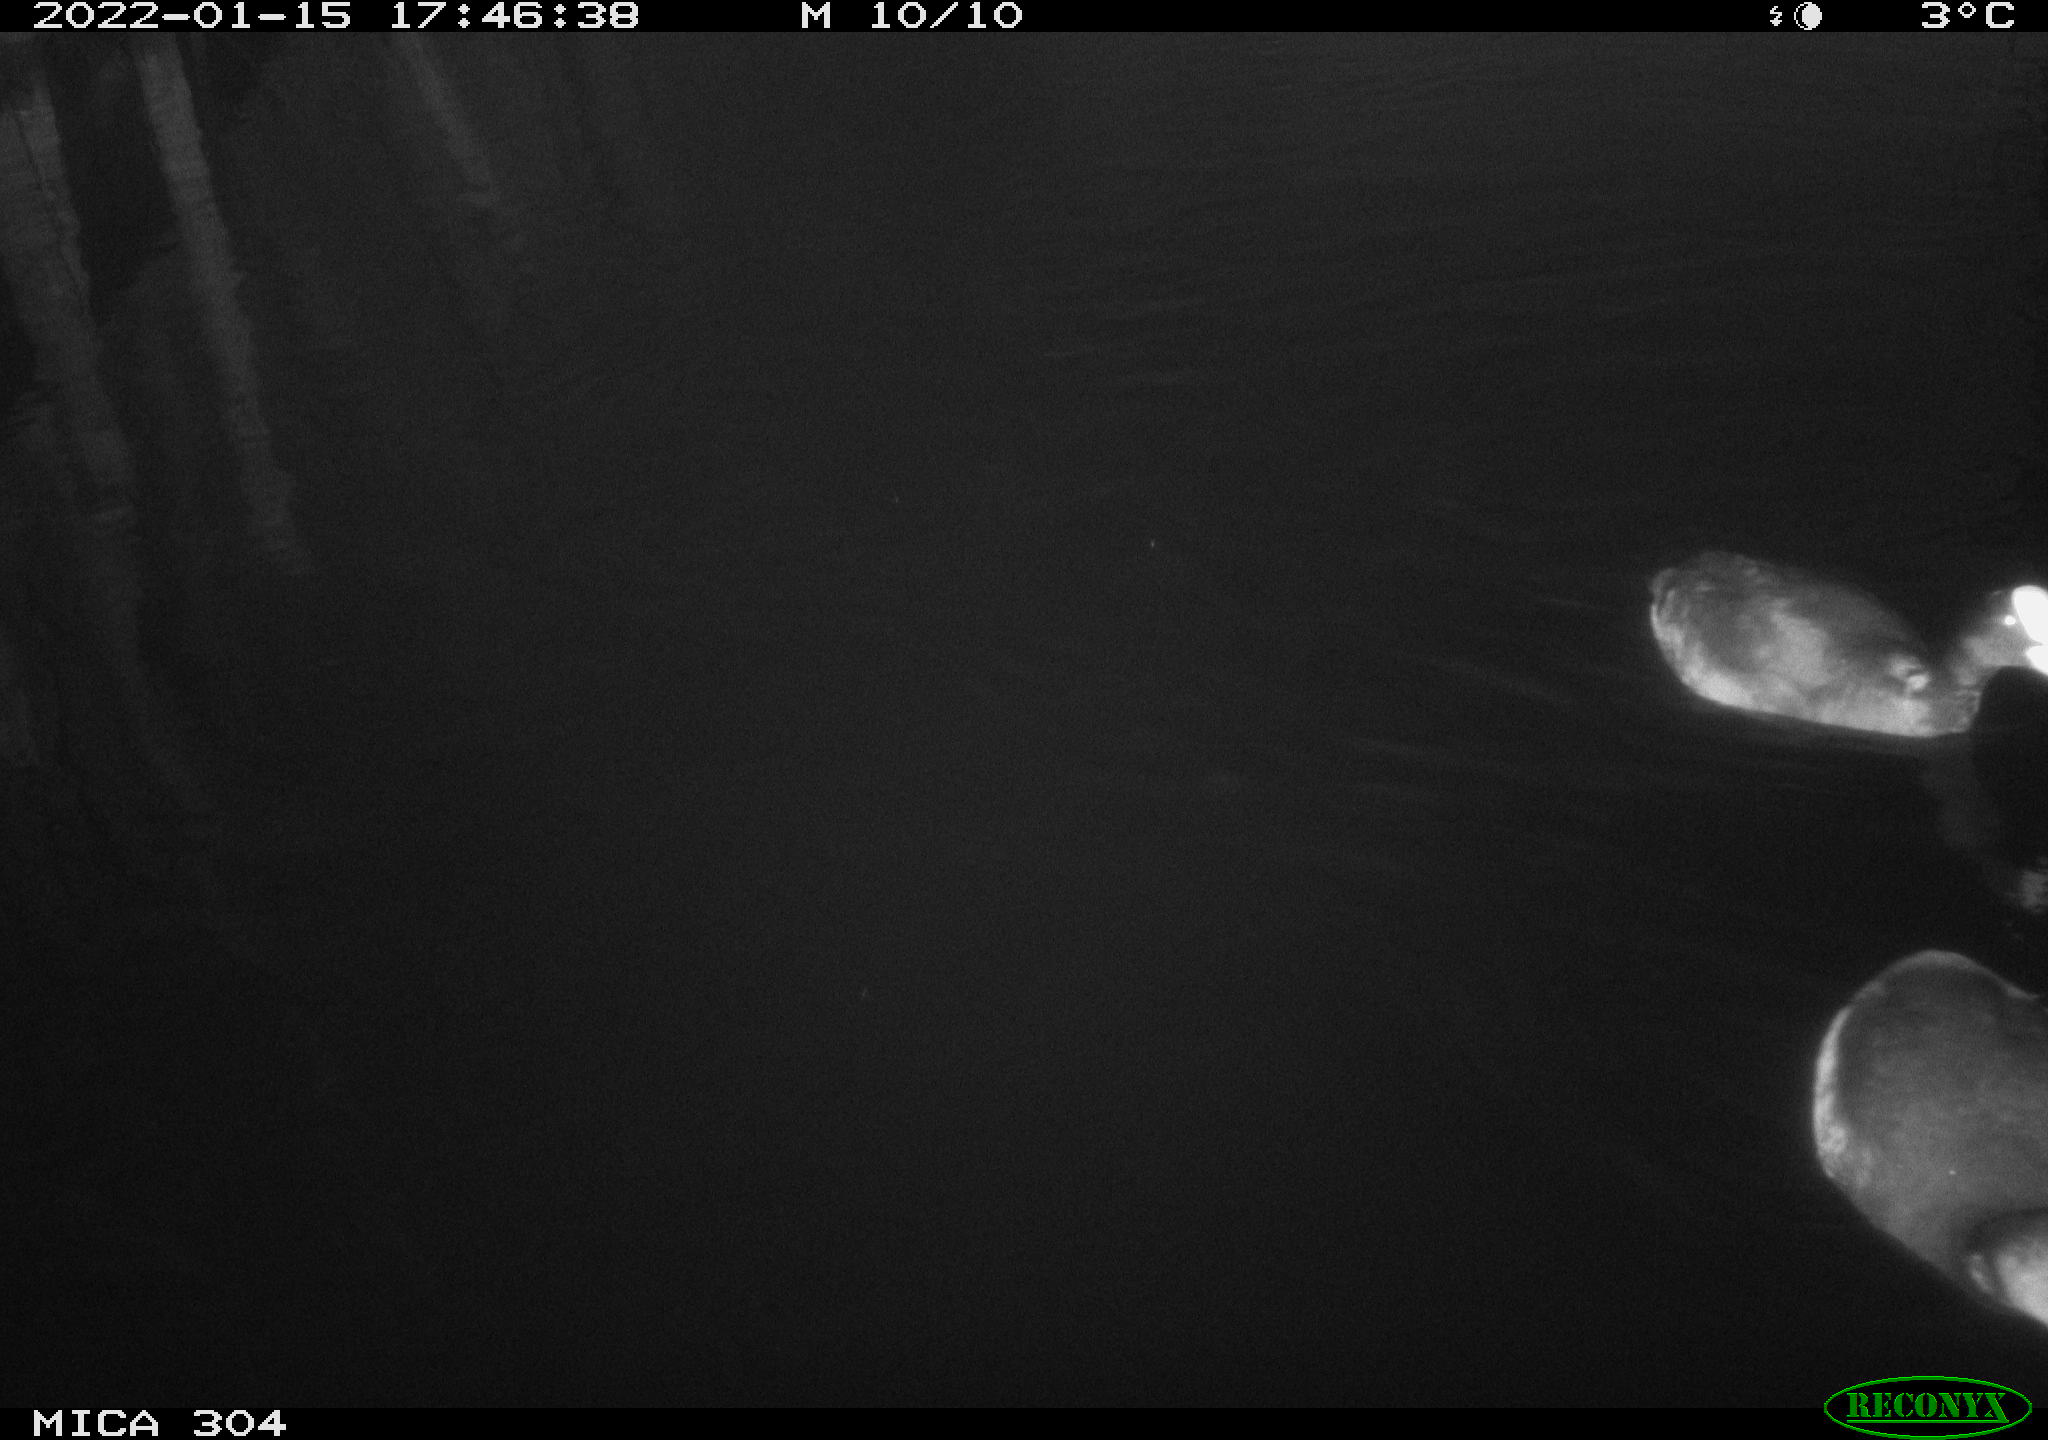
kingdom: Animalia
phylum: Chordata
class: Aves
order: Anseriformes
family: Anatidae
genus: Anas
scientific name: Anas
